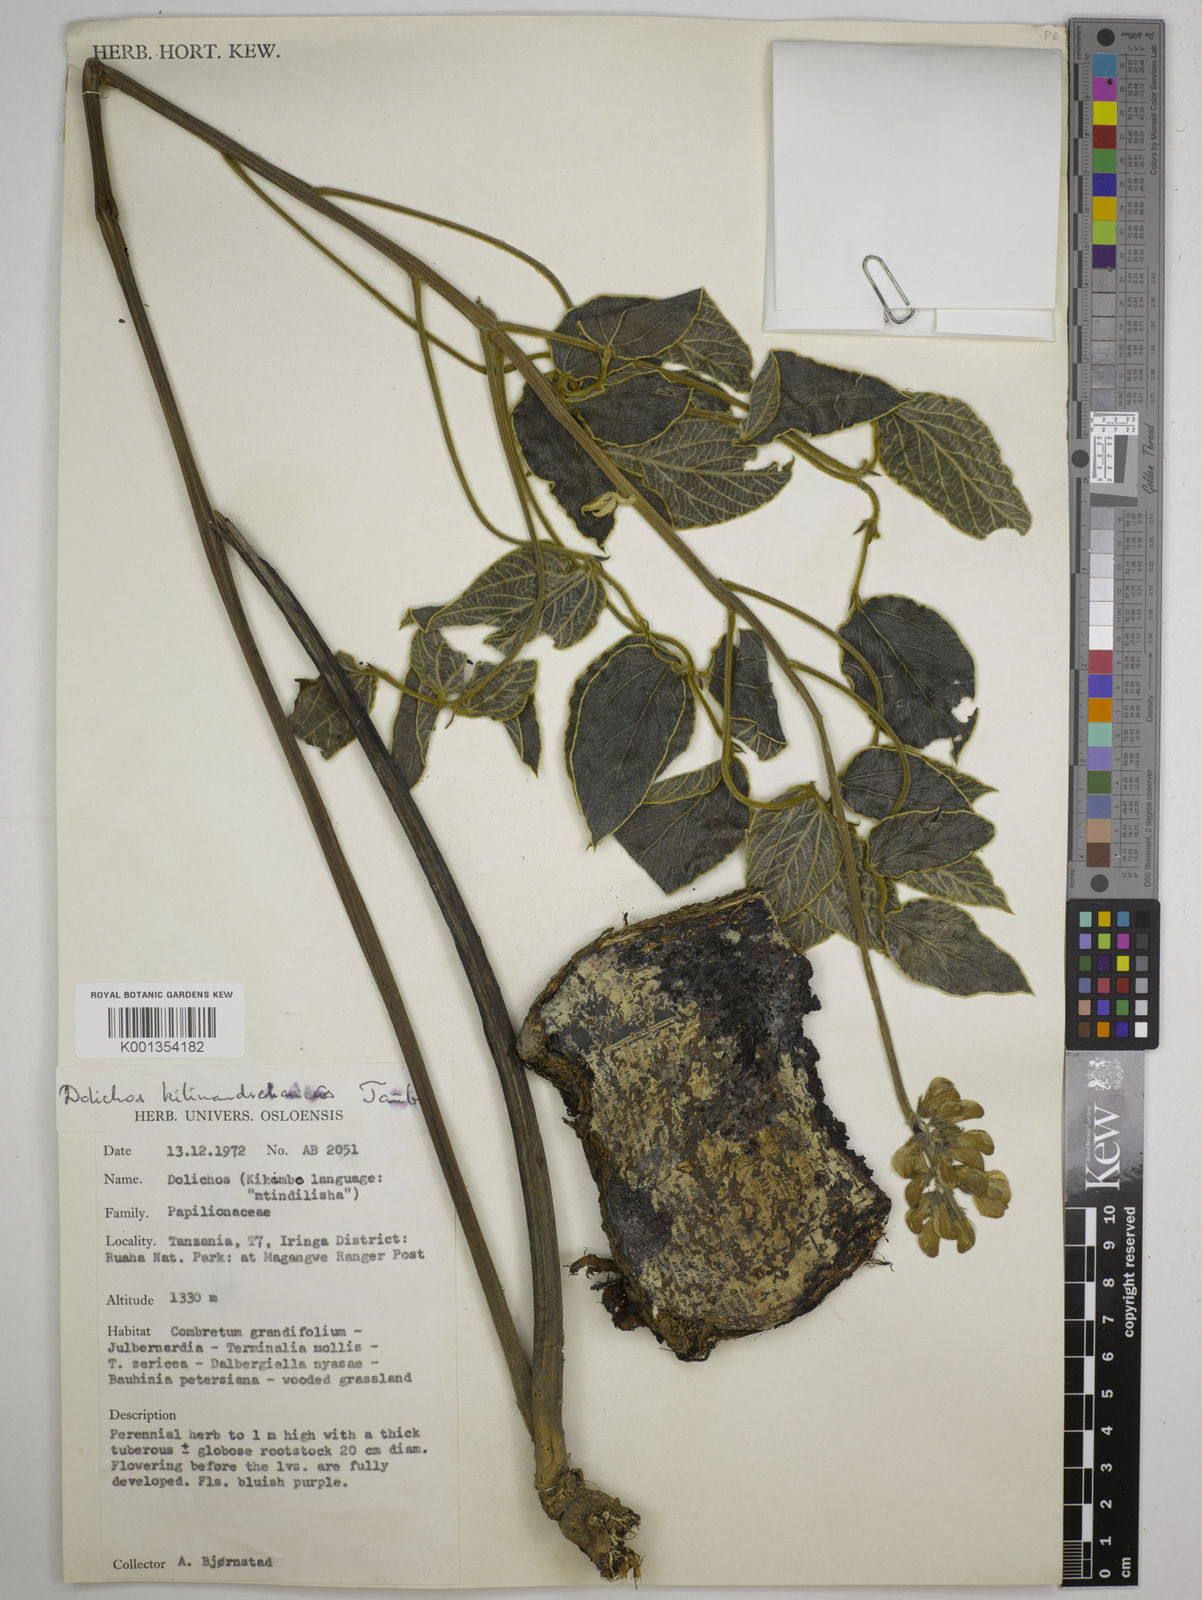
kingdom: Plantae
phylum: Tracheophyta
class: Magnoliopsida
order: Fabales
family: Fabaceae
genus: Dolichos
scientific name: Dolichos kilimandscharicus
